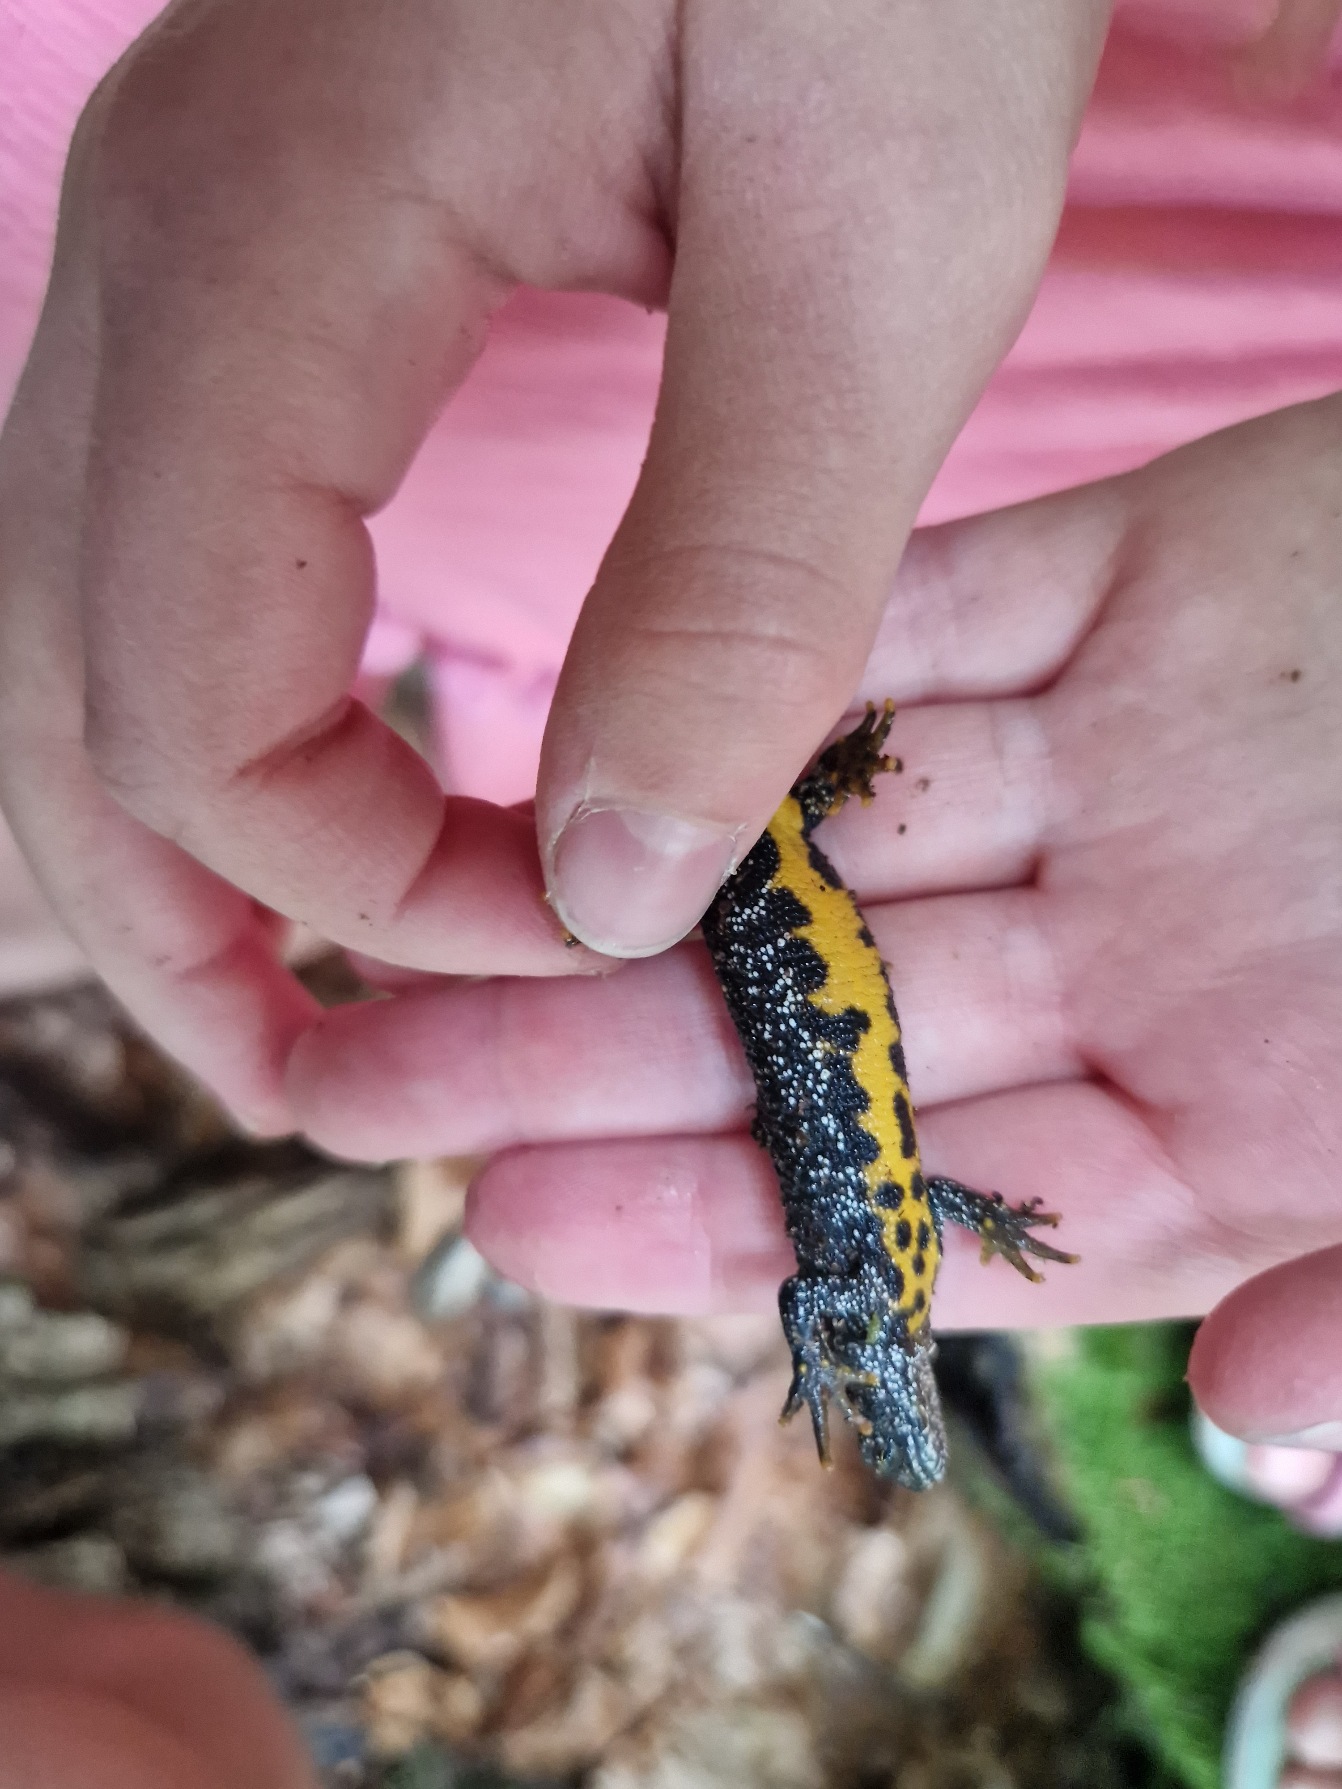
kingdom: Animalia
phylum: Chordata
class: Amphibia
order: Caudata
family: Salamandridae
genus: Triturus
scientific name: Triturus cristatus
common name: Stor vandsalamander
